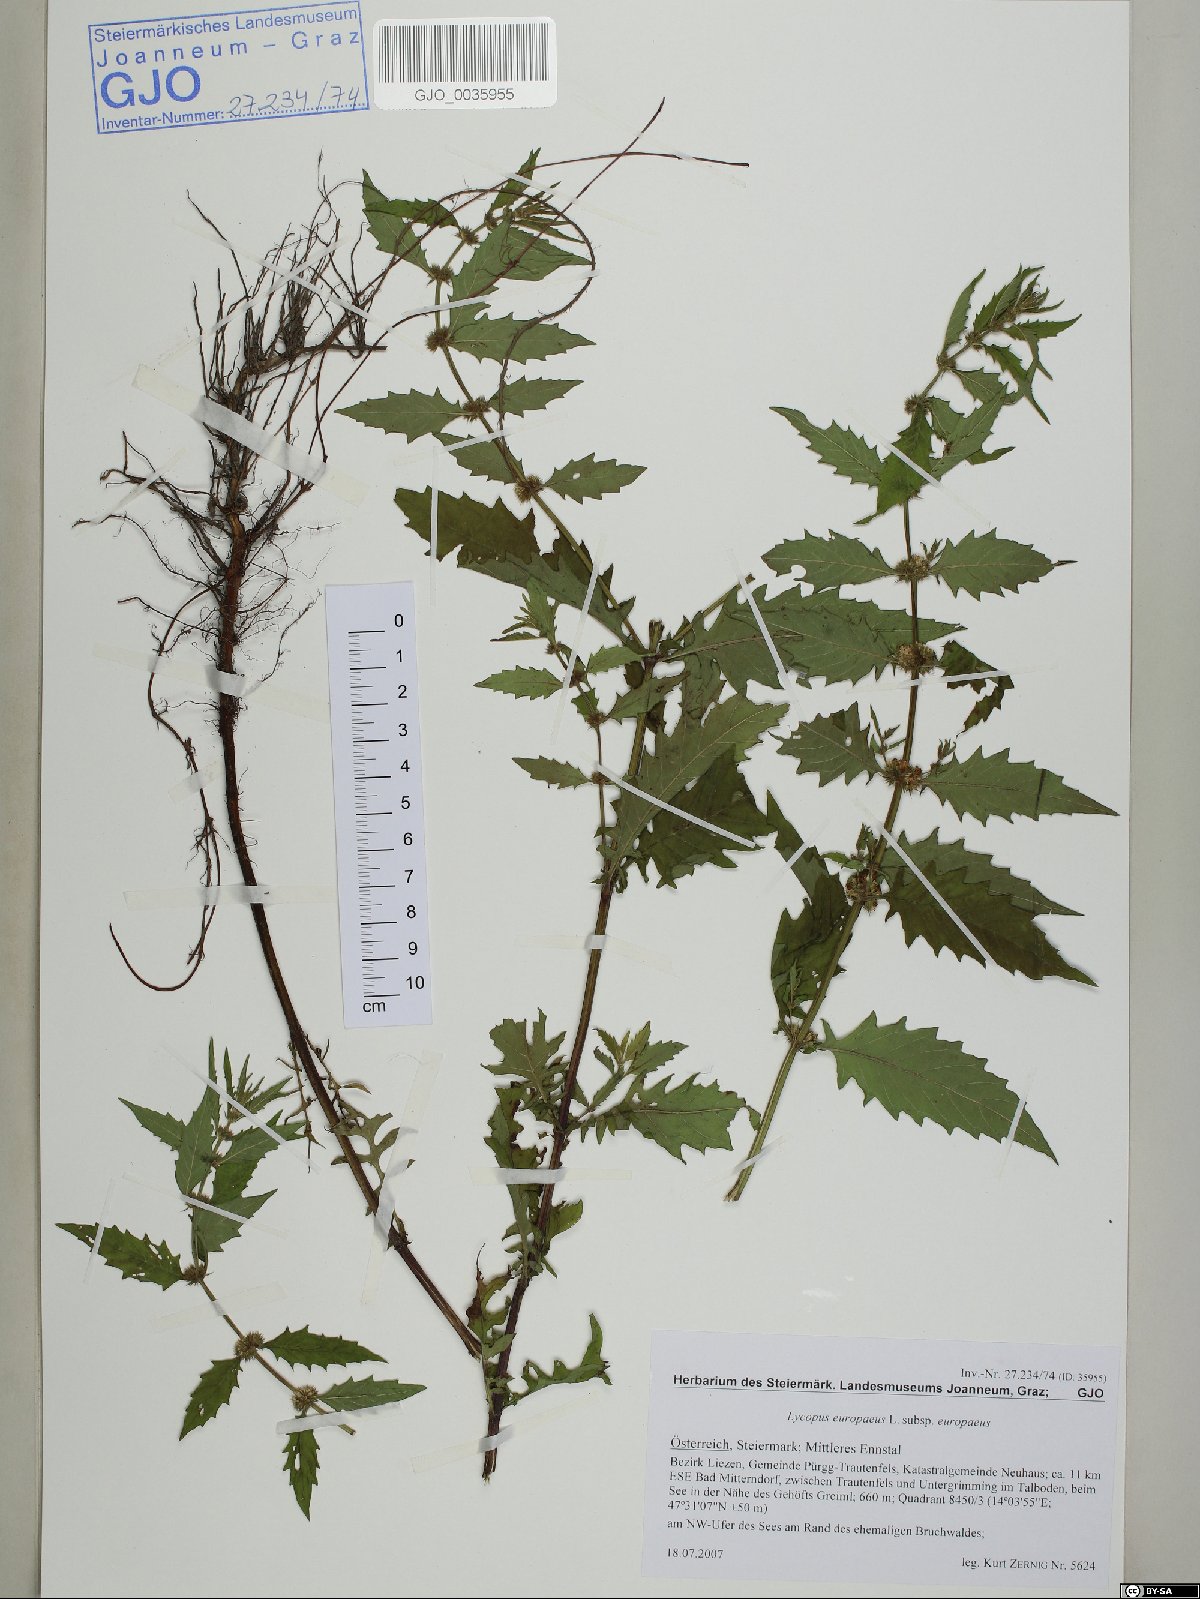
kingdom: Plantae
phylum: Tracheophyta
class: Magnoliopsida
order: Lamiales
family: Lamiaceae
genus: Lycopus
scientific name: Lycopus europaeus
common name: European bugleweed
